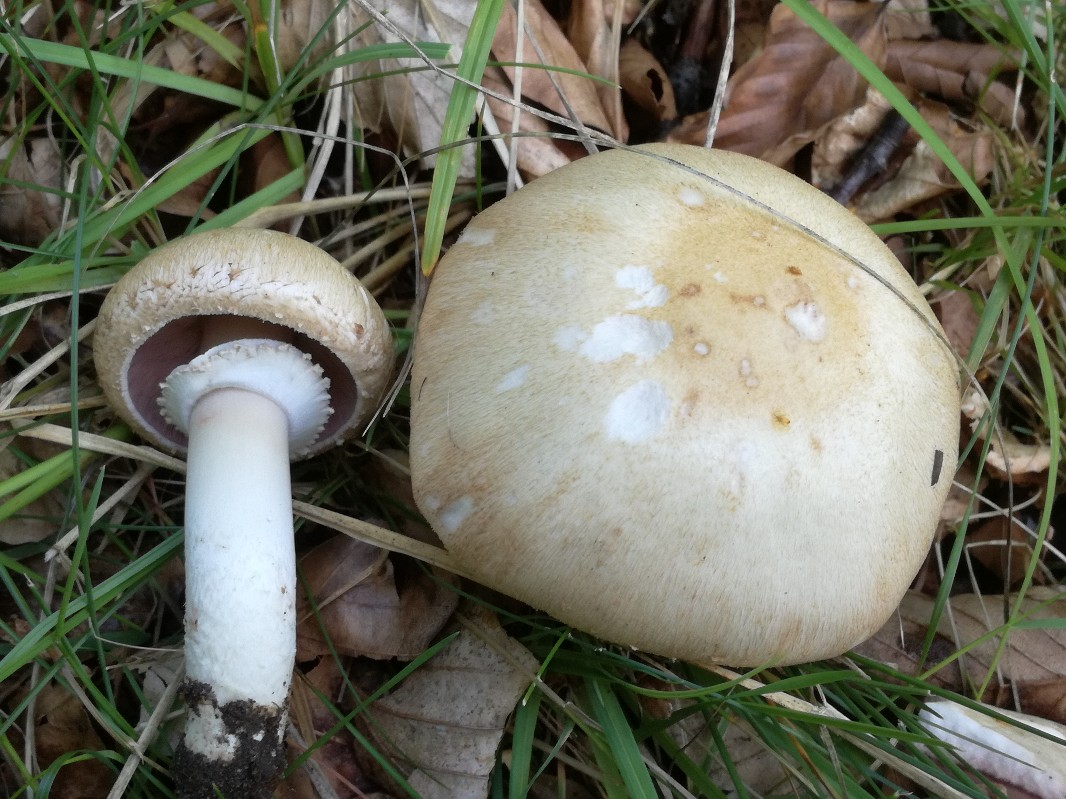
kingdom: Fungi
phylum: Basidiomycota
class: Agaricomycetes
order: Agaricales
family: Agaricaceae
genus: Agaricus
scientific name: Agaricus depauperatus
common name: finskællet champignon
